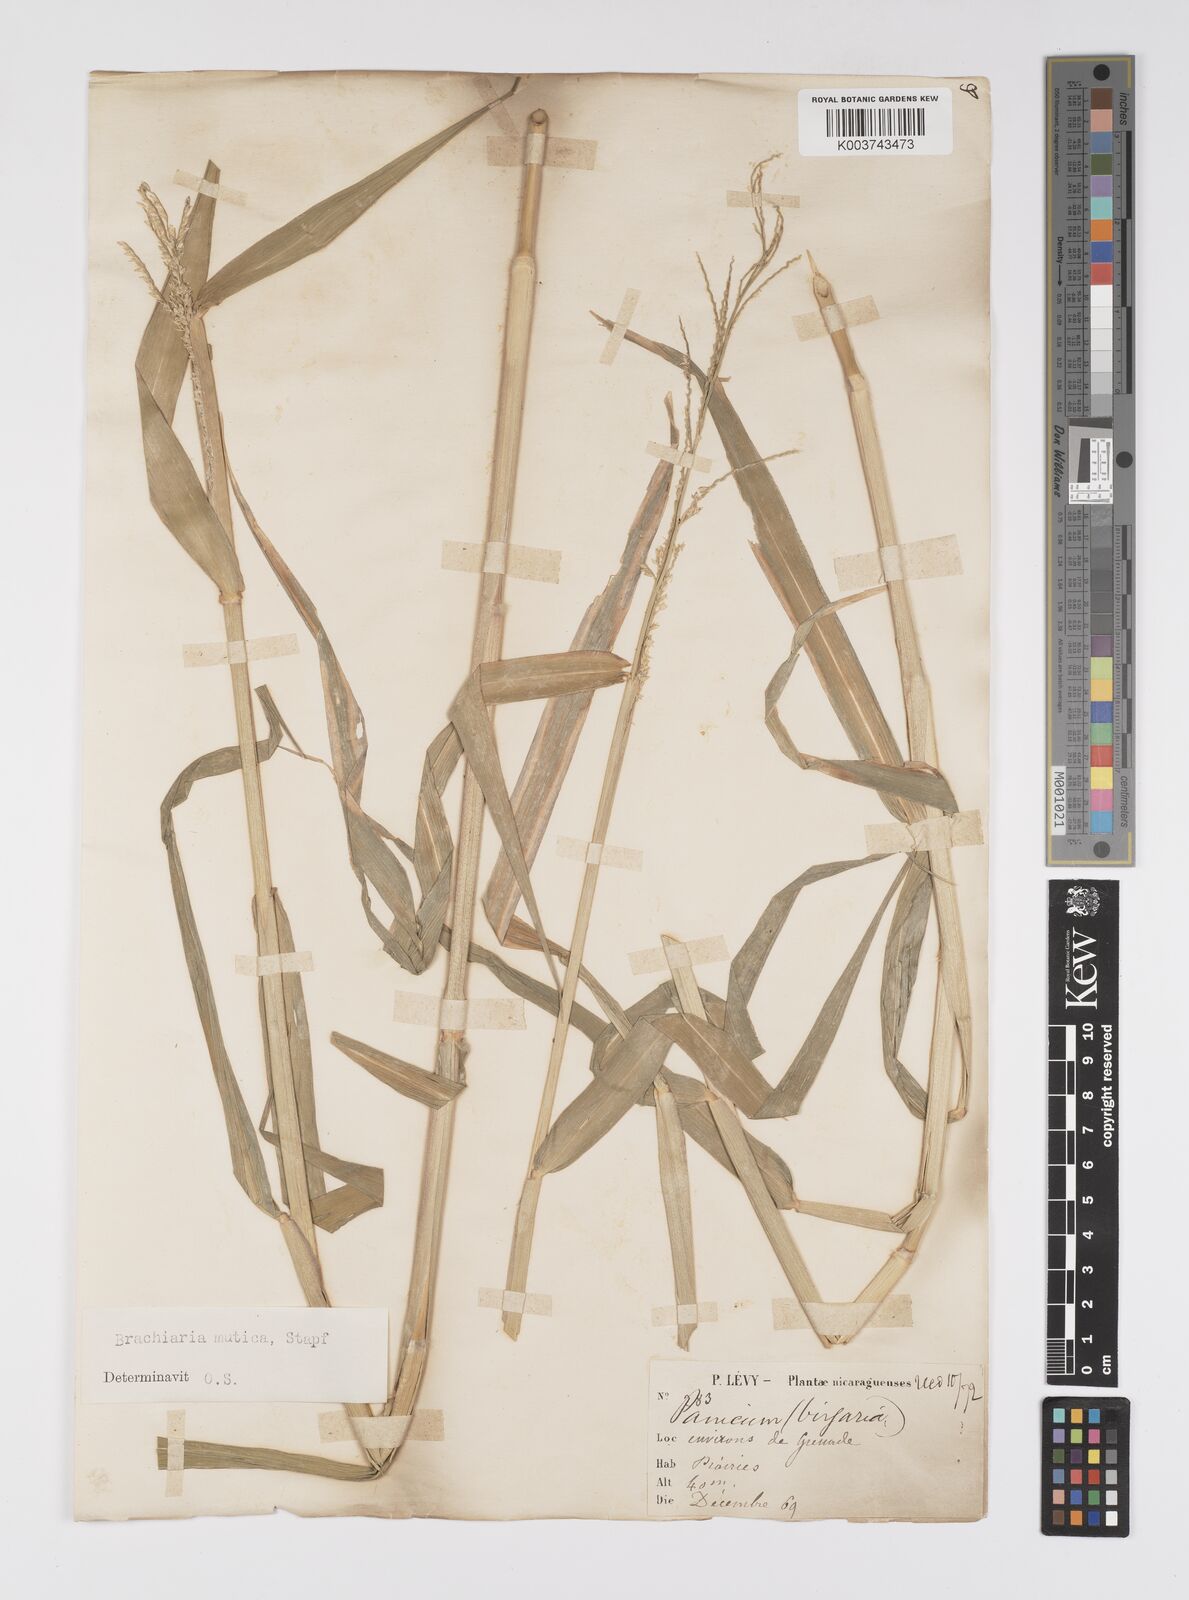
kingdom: Plantae
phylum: Tracheophyta
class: Liliopsida
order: Poales
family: Poaceae
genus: Urochloa
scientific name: Urochloa mutica
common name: Para grass
